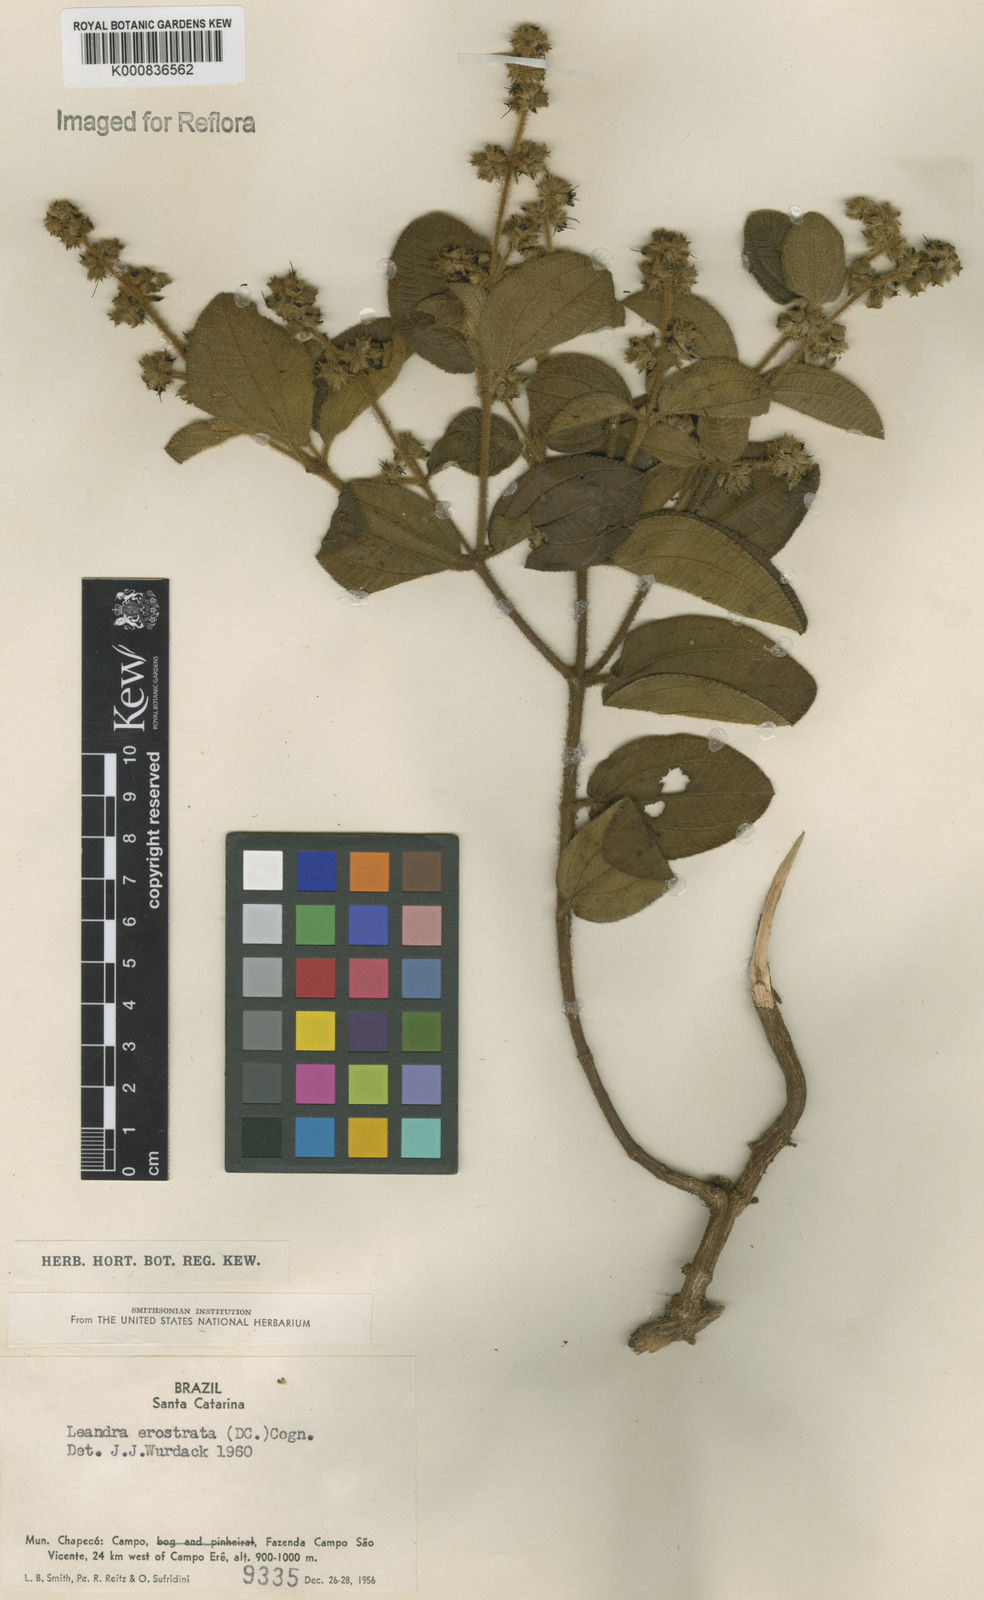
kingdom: Plantae
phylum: Tracheophyta
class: Magnoliopsida
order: Myrtales
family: Melastomataceae
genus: Miconia
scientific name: Miconia erostrata
